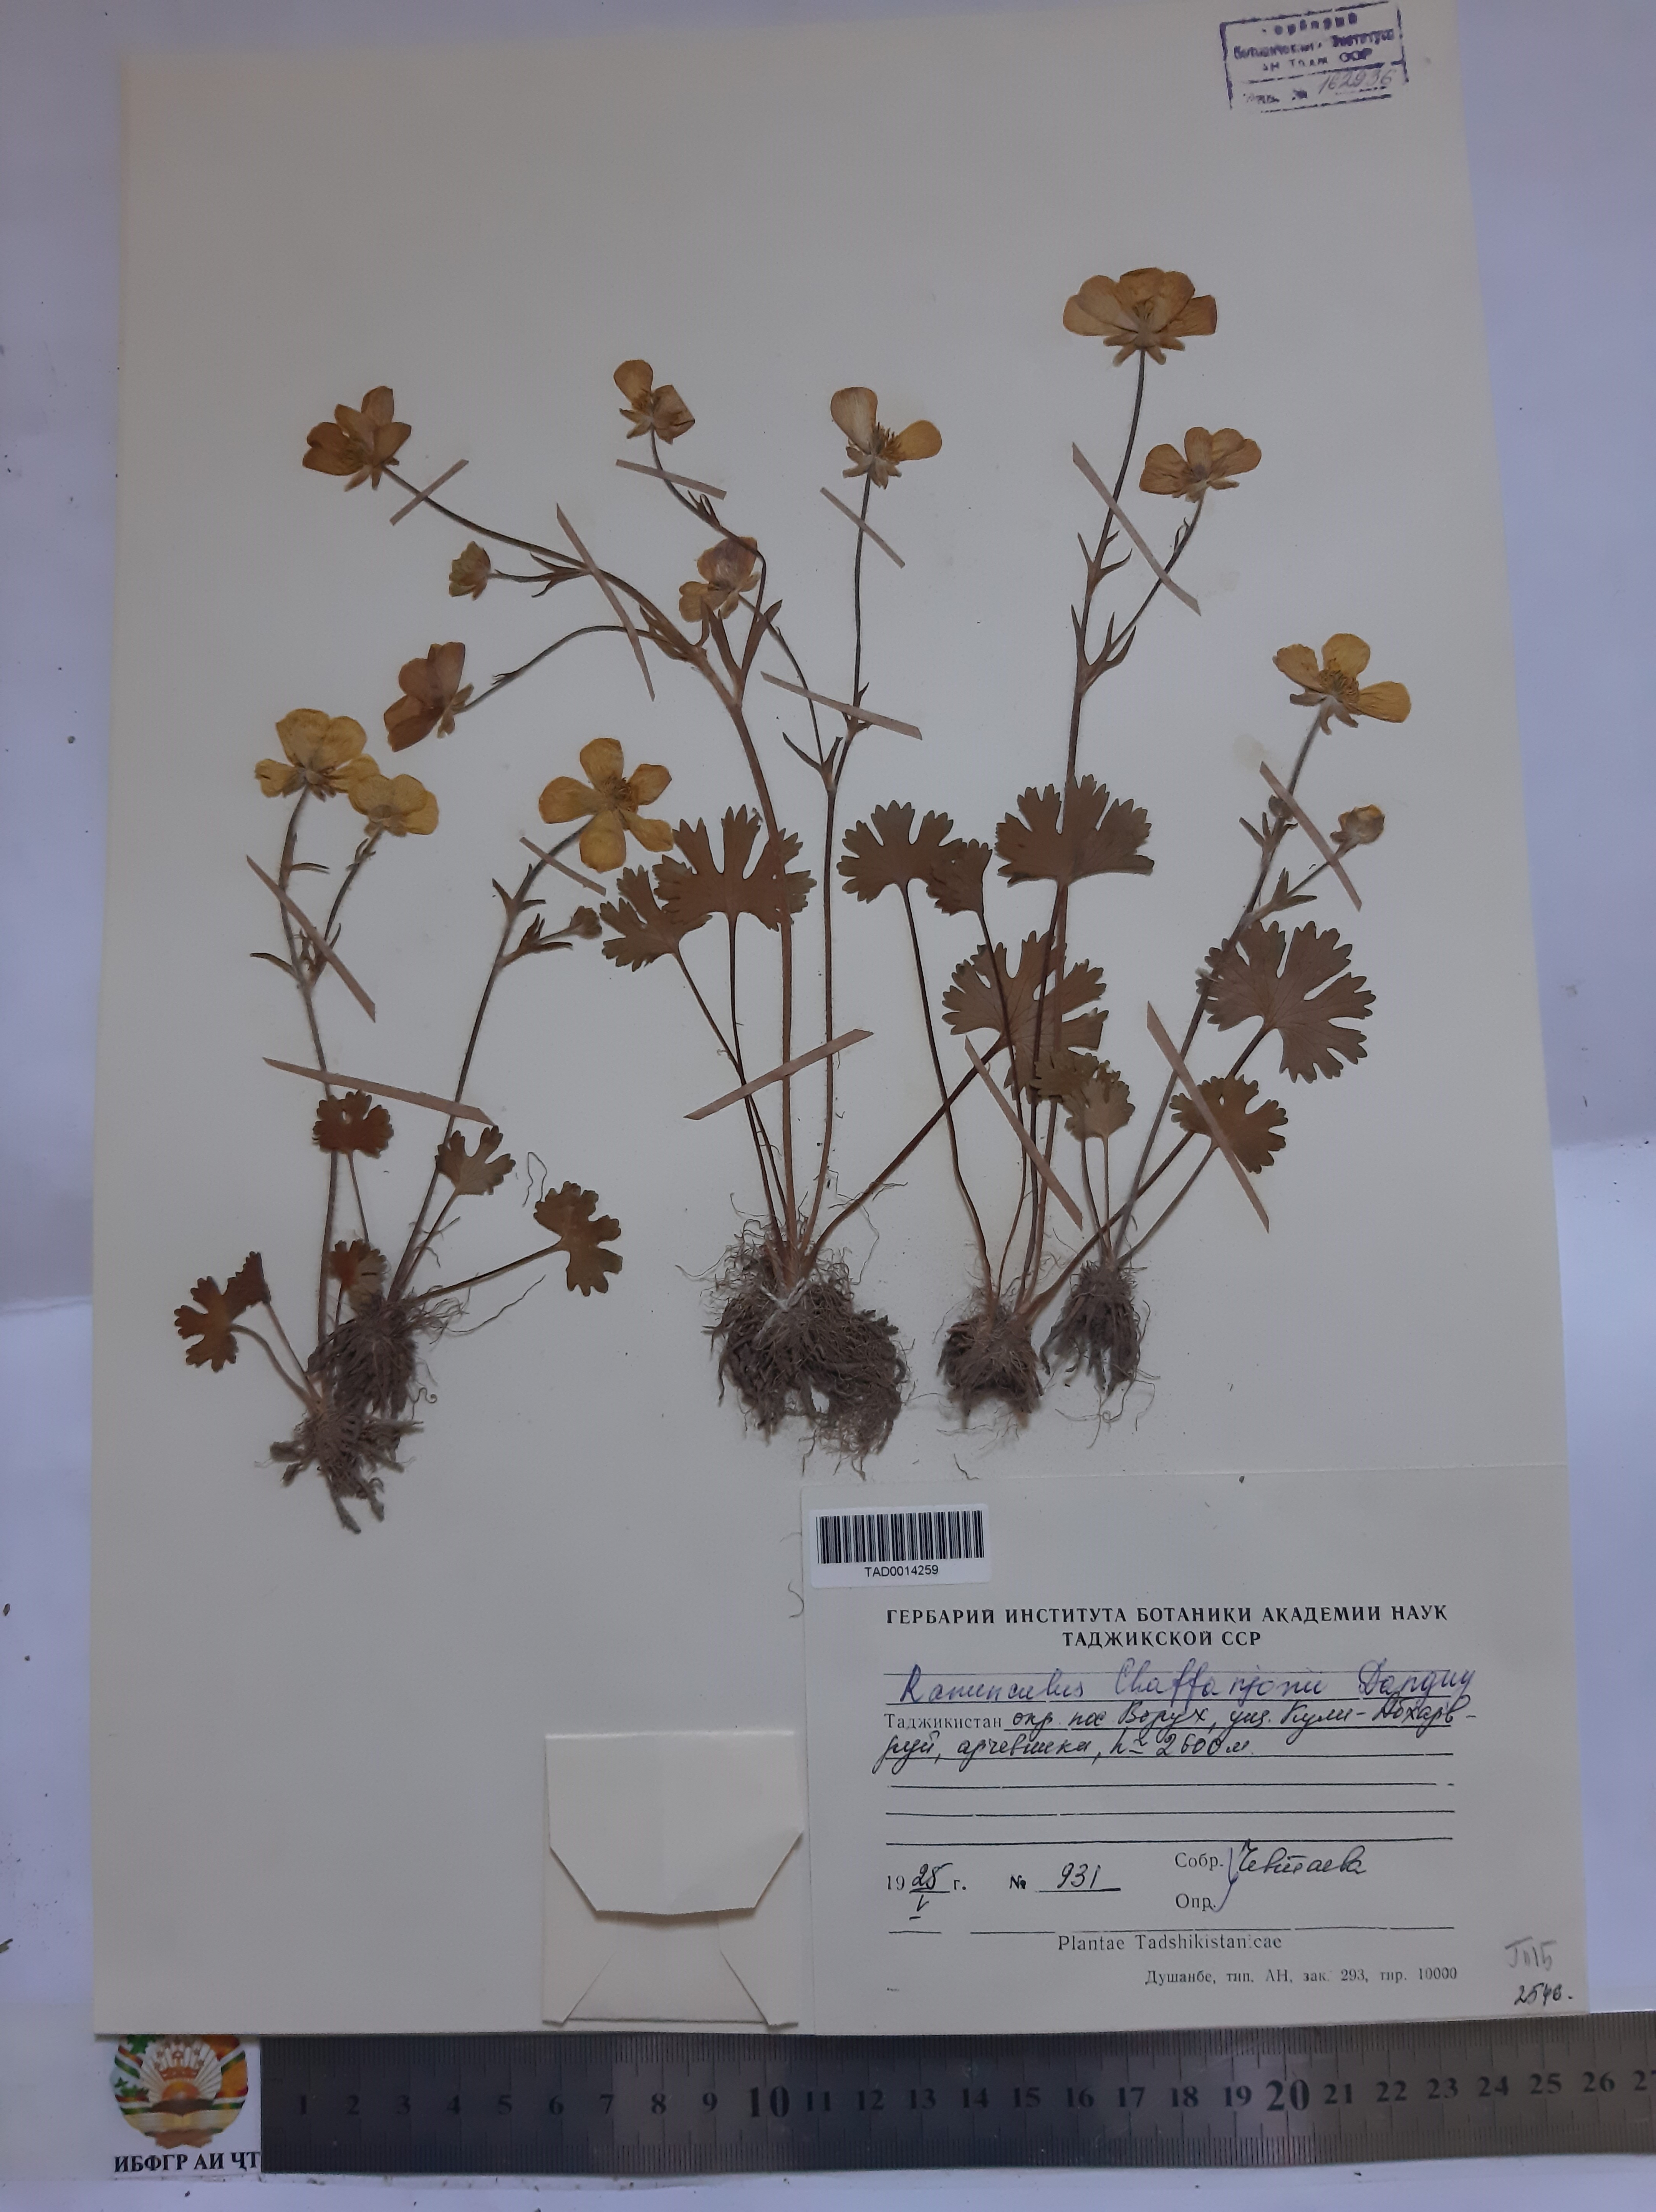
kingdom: Plantae
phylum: Tracheophyta
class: Magnoliopsida
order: Ranunculales
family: Ranunculaceae
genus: Ranunculus
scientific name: Ranunculus afghanicus
